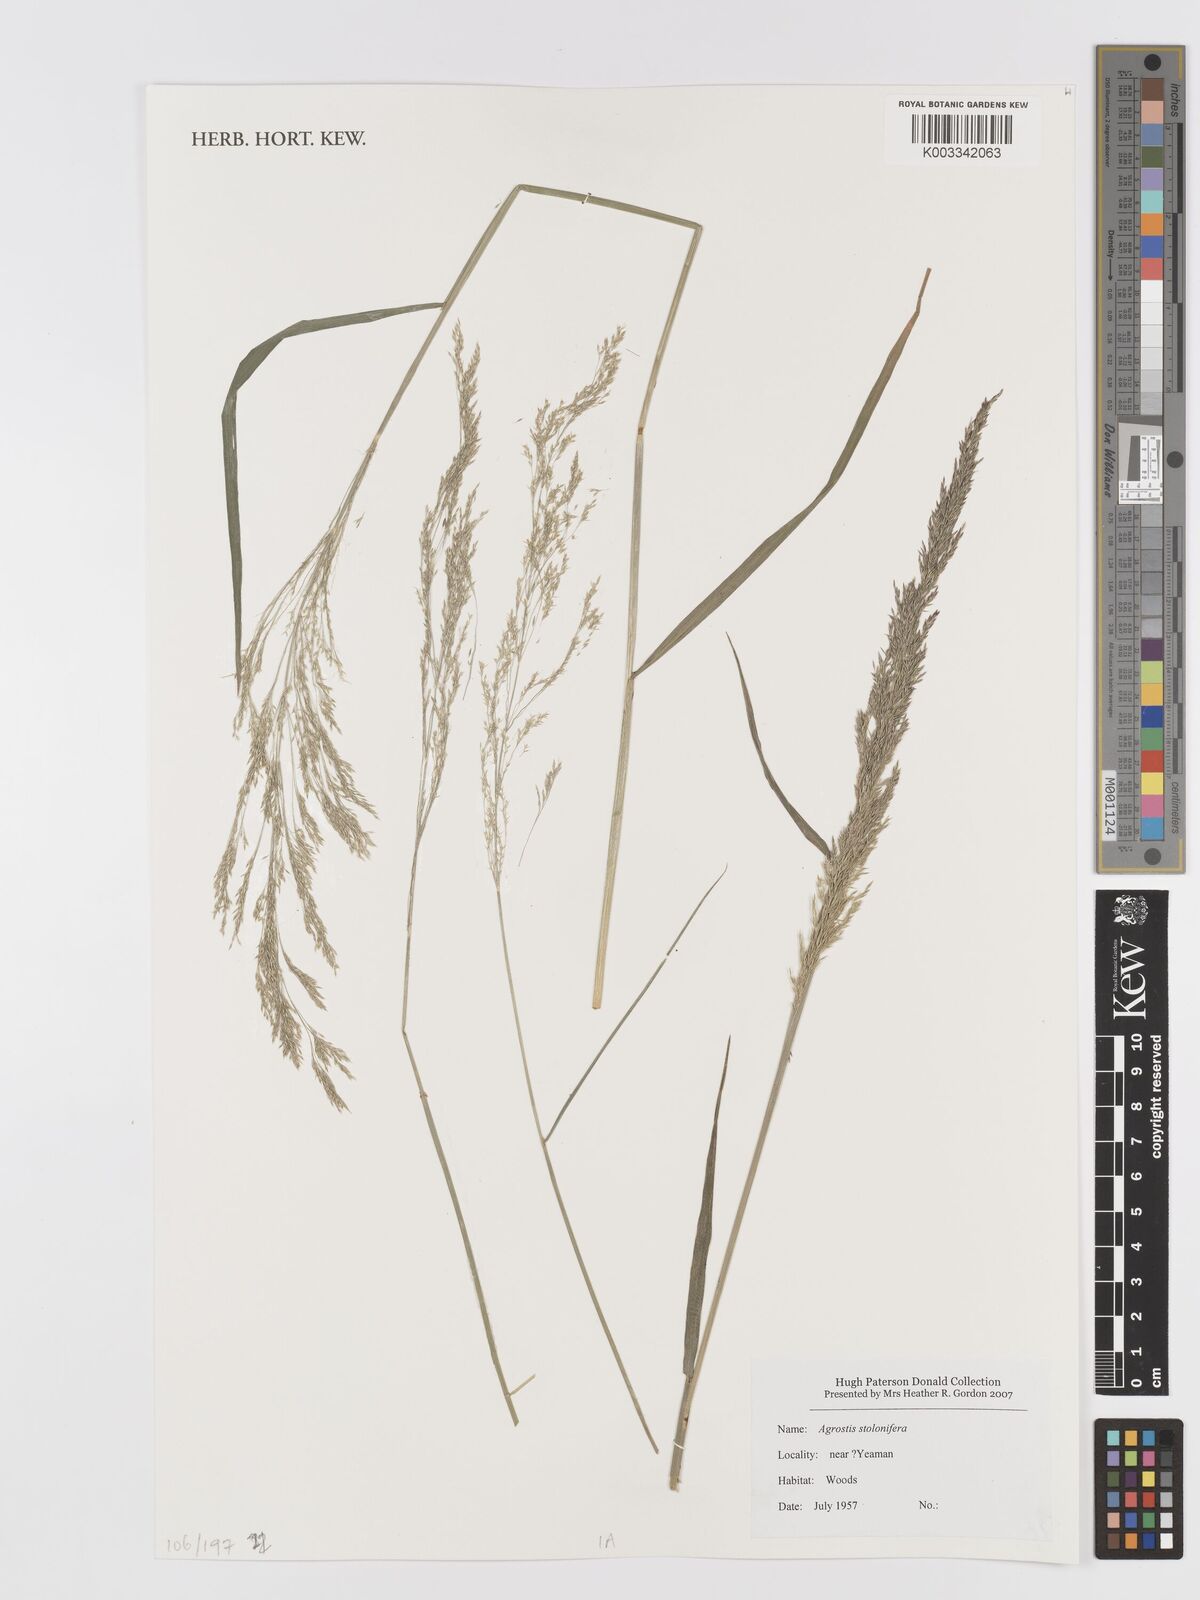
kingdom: Plantae
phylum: Tracheophyta
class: Liliopsida
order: Poales
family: Poaceae
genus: Agrostis
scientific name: Agrostis stolonifera
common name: Creeping bentgrass
